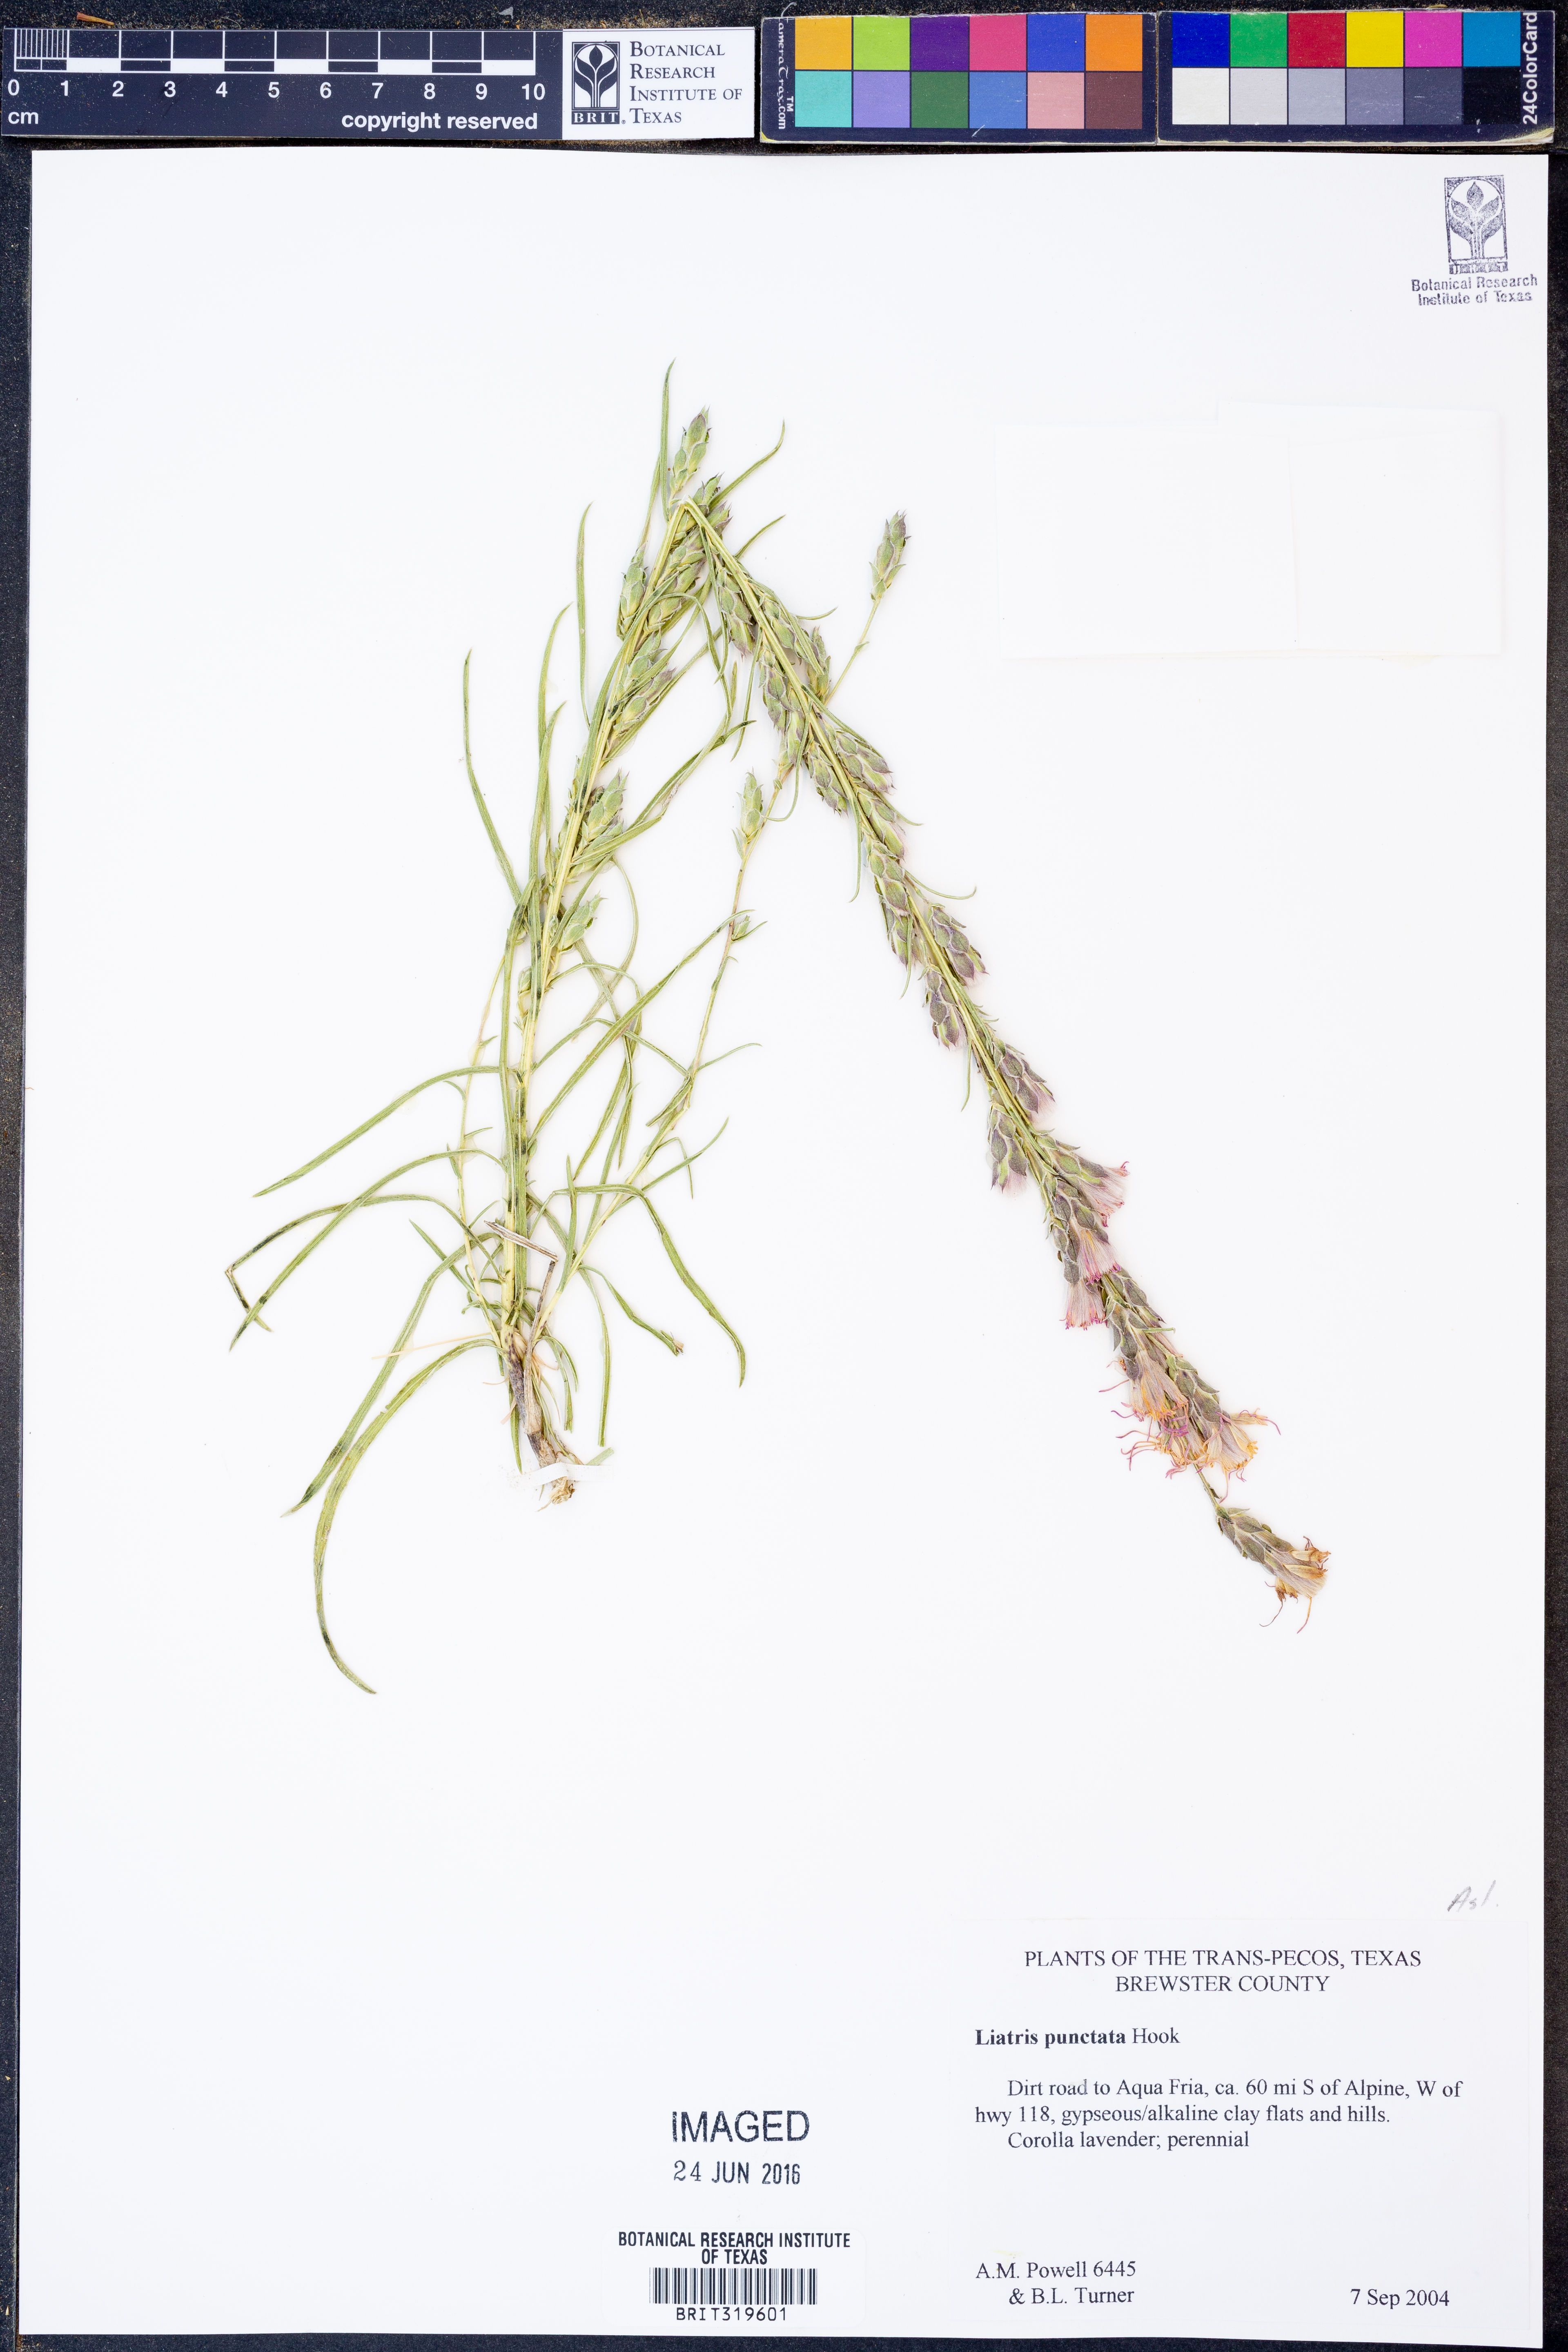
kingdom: Plantae
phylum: Tracheophyta
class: Magnoliopsida
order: Asterales
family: Asteraceae
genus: Liatris
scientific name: Liatris punctata
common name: Dotted gayfeather
